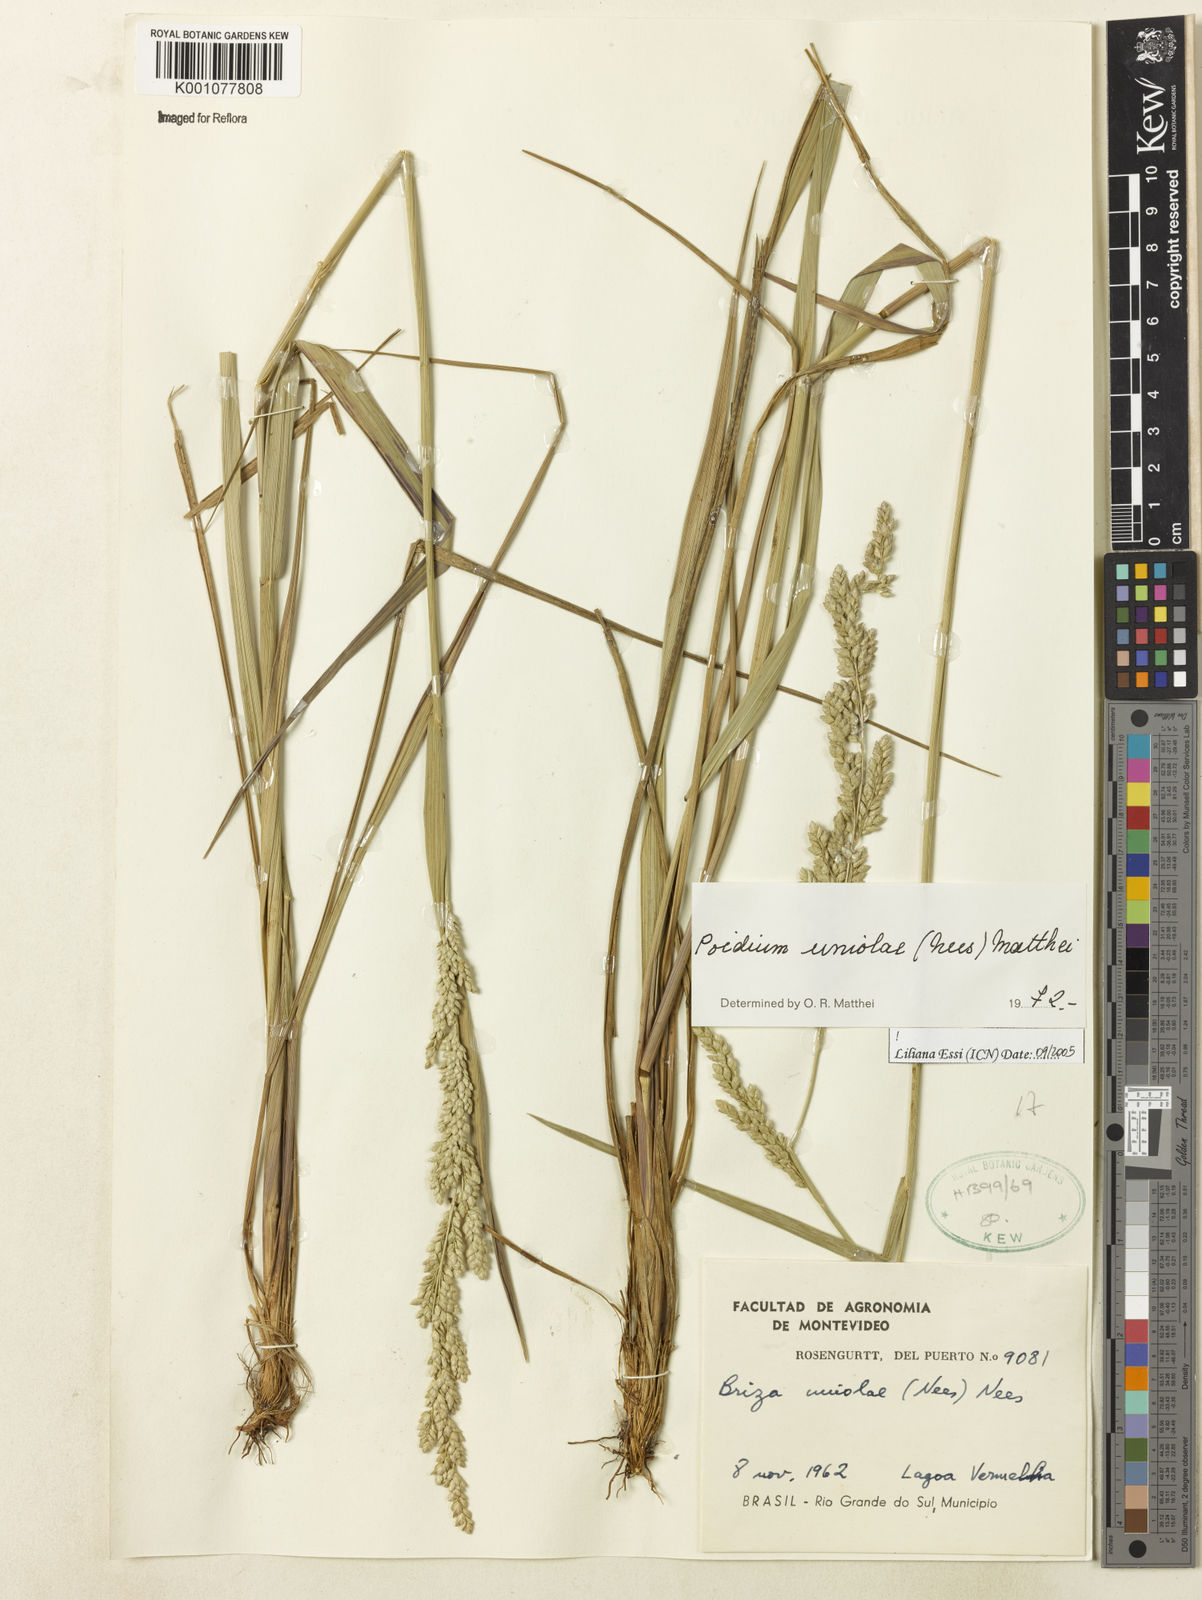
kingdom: Plantae
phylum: Tracheophyta
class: Liliopsida
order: Poales
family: Poaceae
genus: Poidium
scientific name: Poidium uniolae
